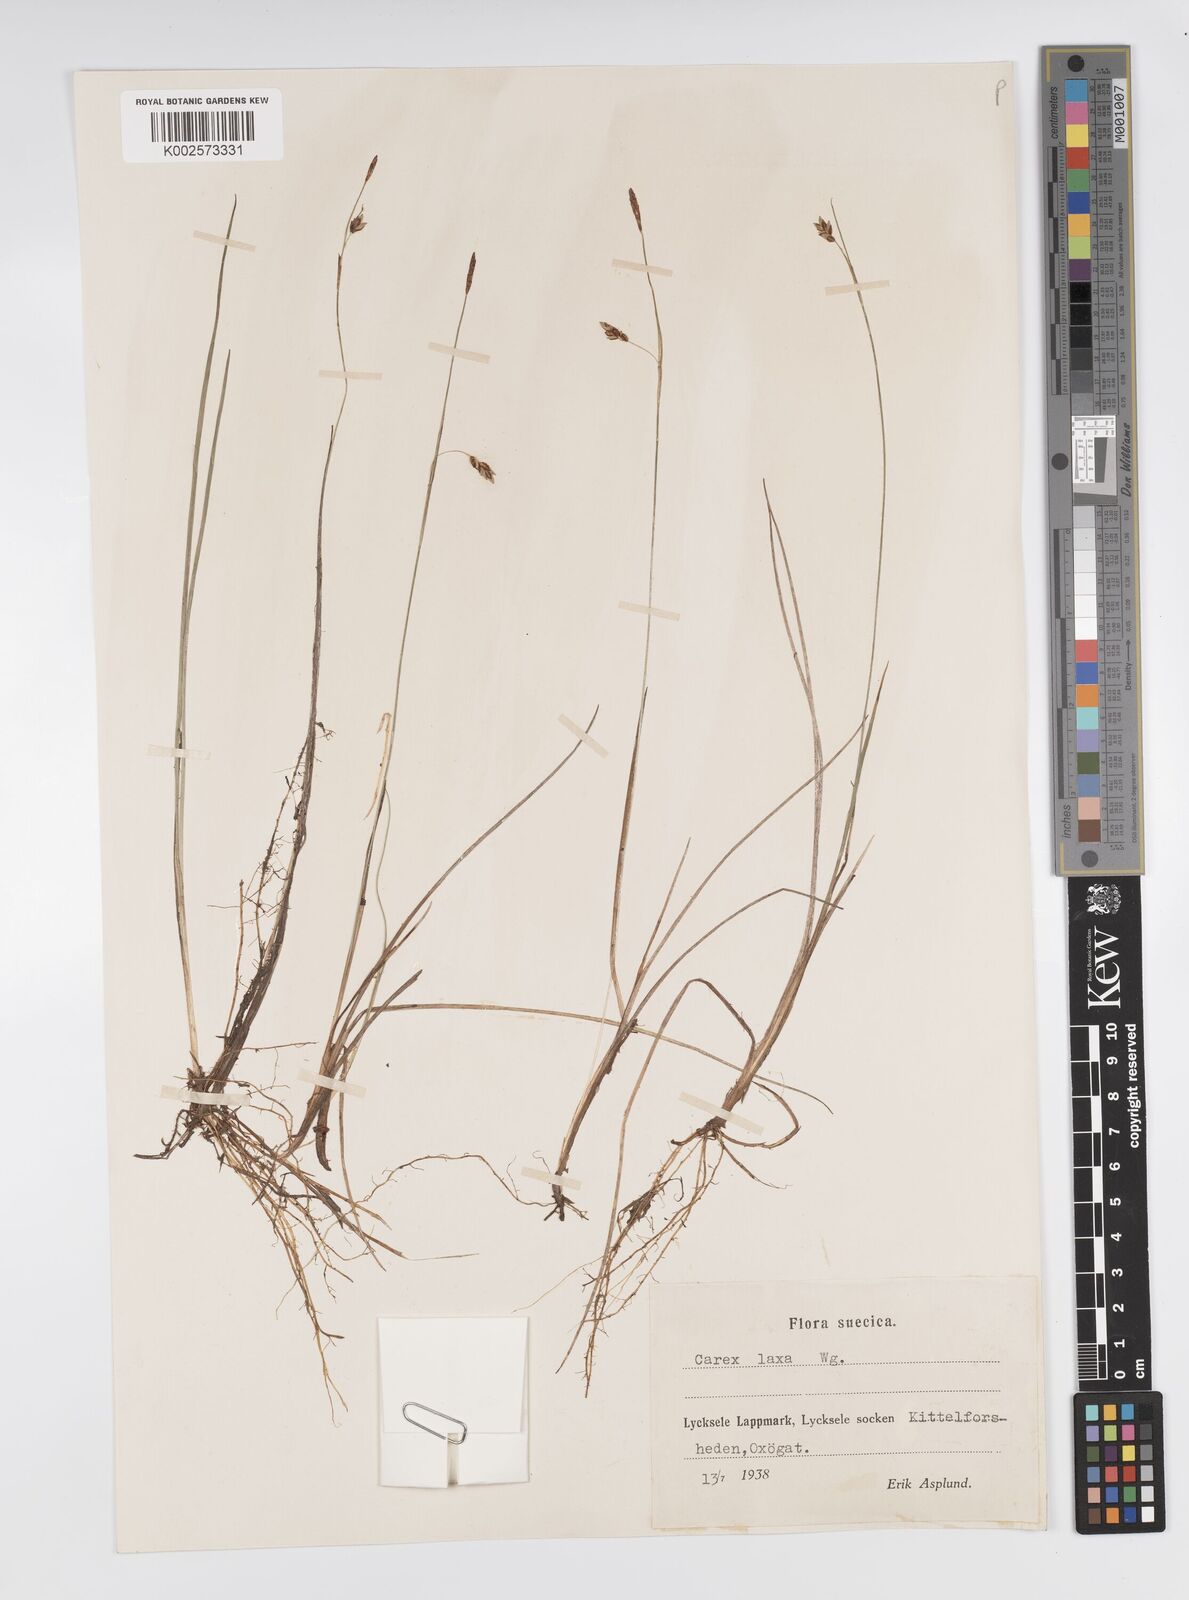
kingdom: Plantae
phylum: Tracheophyta
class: Liliopsida
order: Poales
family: Cyperaceae
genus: Carex
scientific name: Carex laxa
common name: Weak sedge
